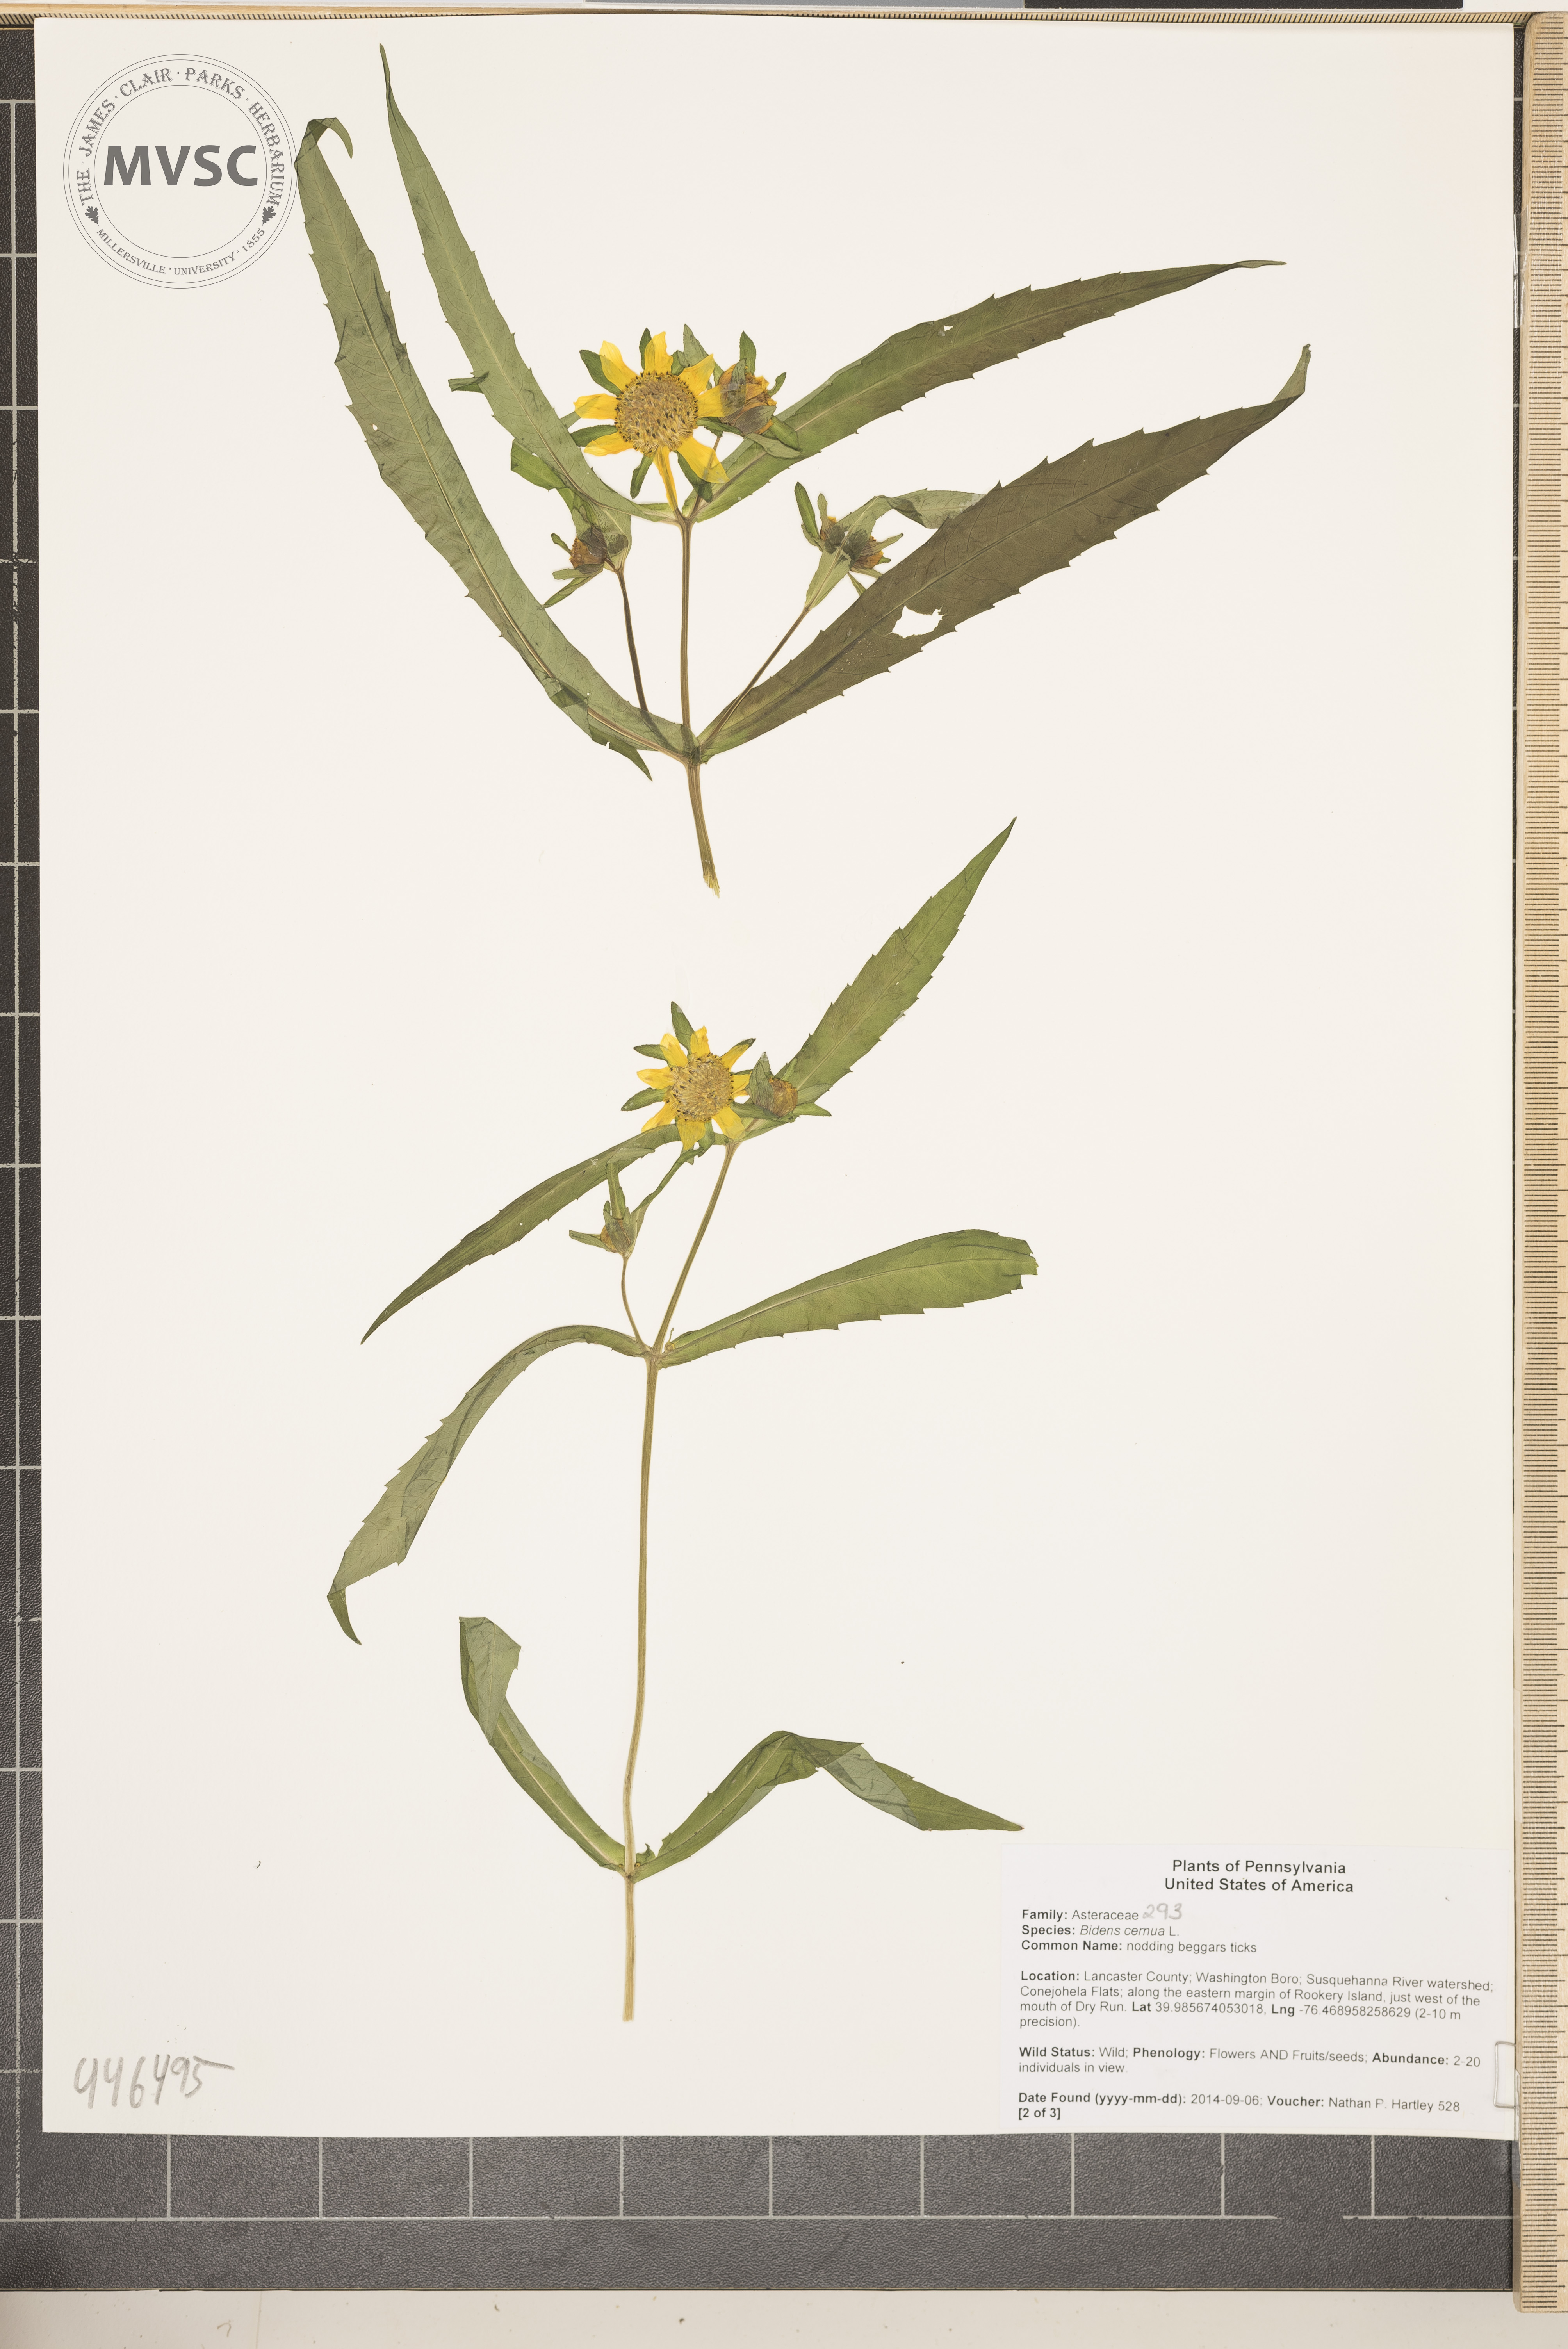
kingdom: Plantae
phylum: Tracheophyta
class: Magnoliopsida
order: Asterales
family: Asteraceae
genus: Bidens
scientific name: Bidens cernua
